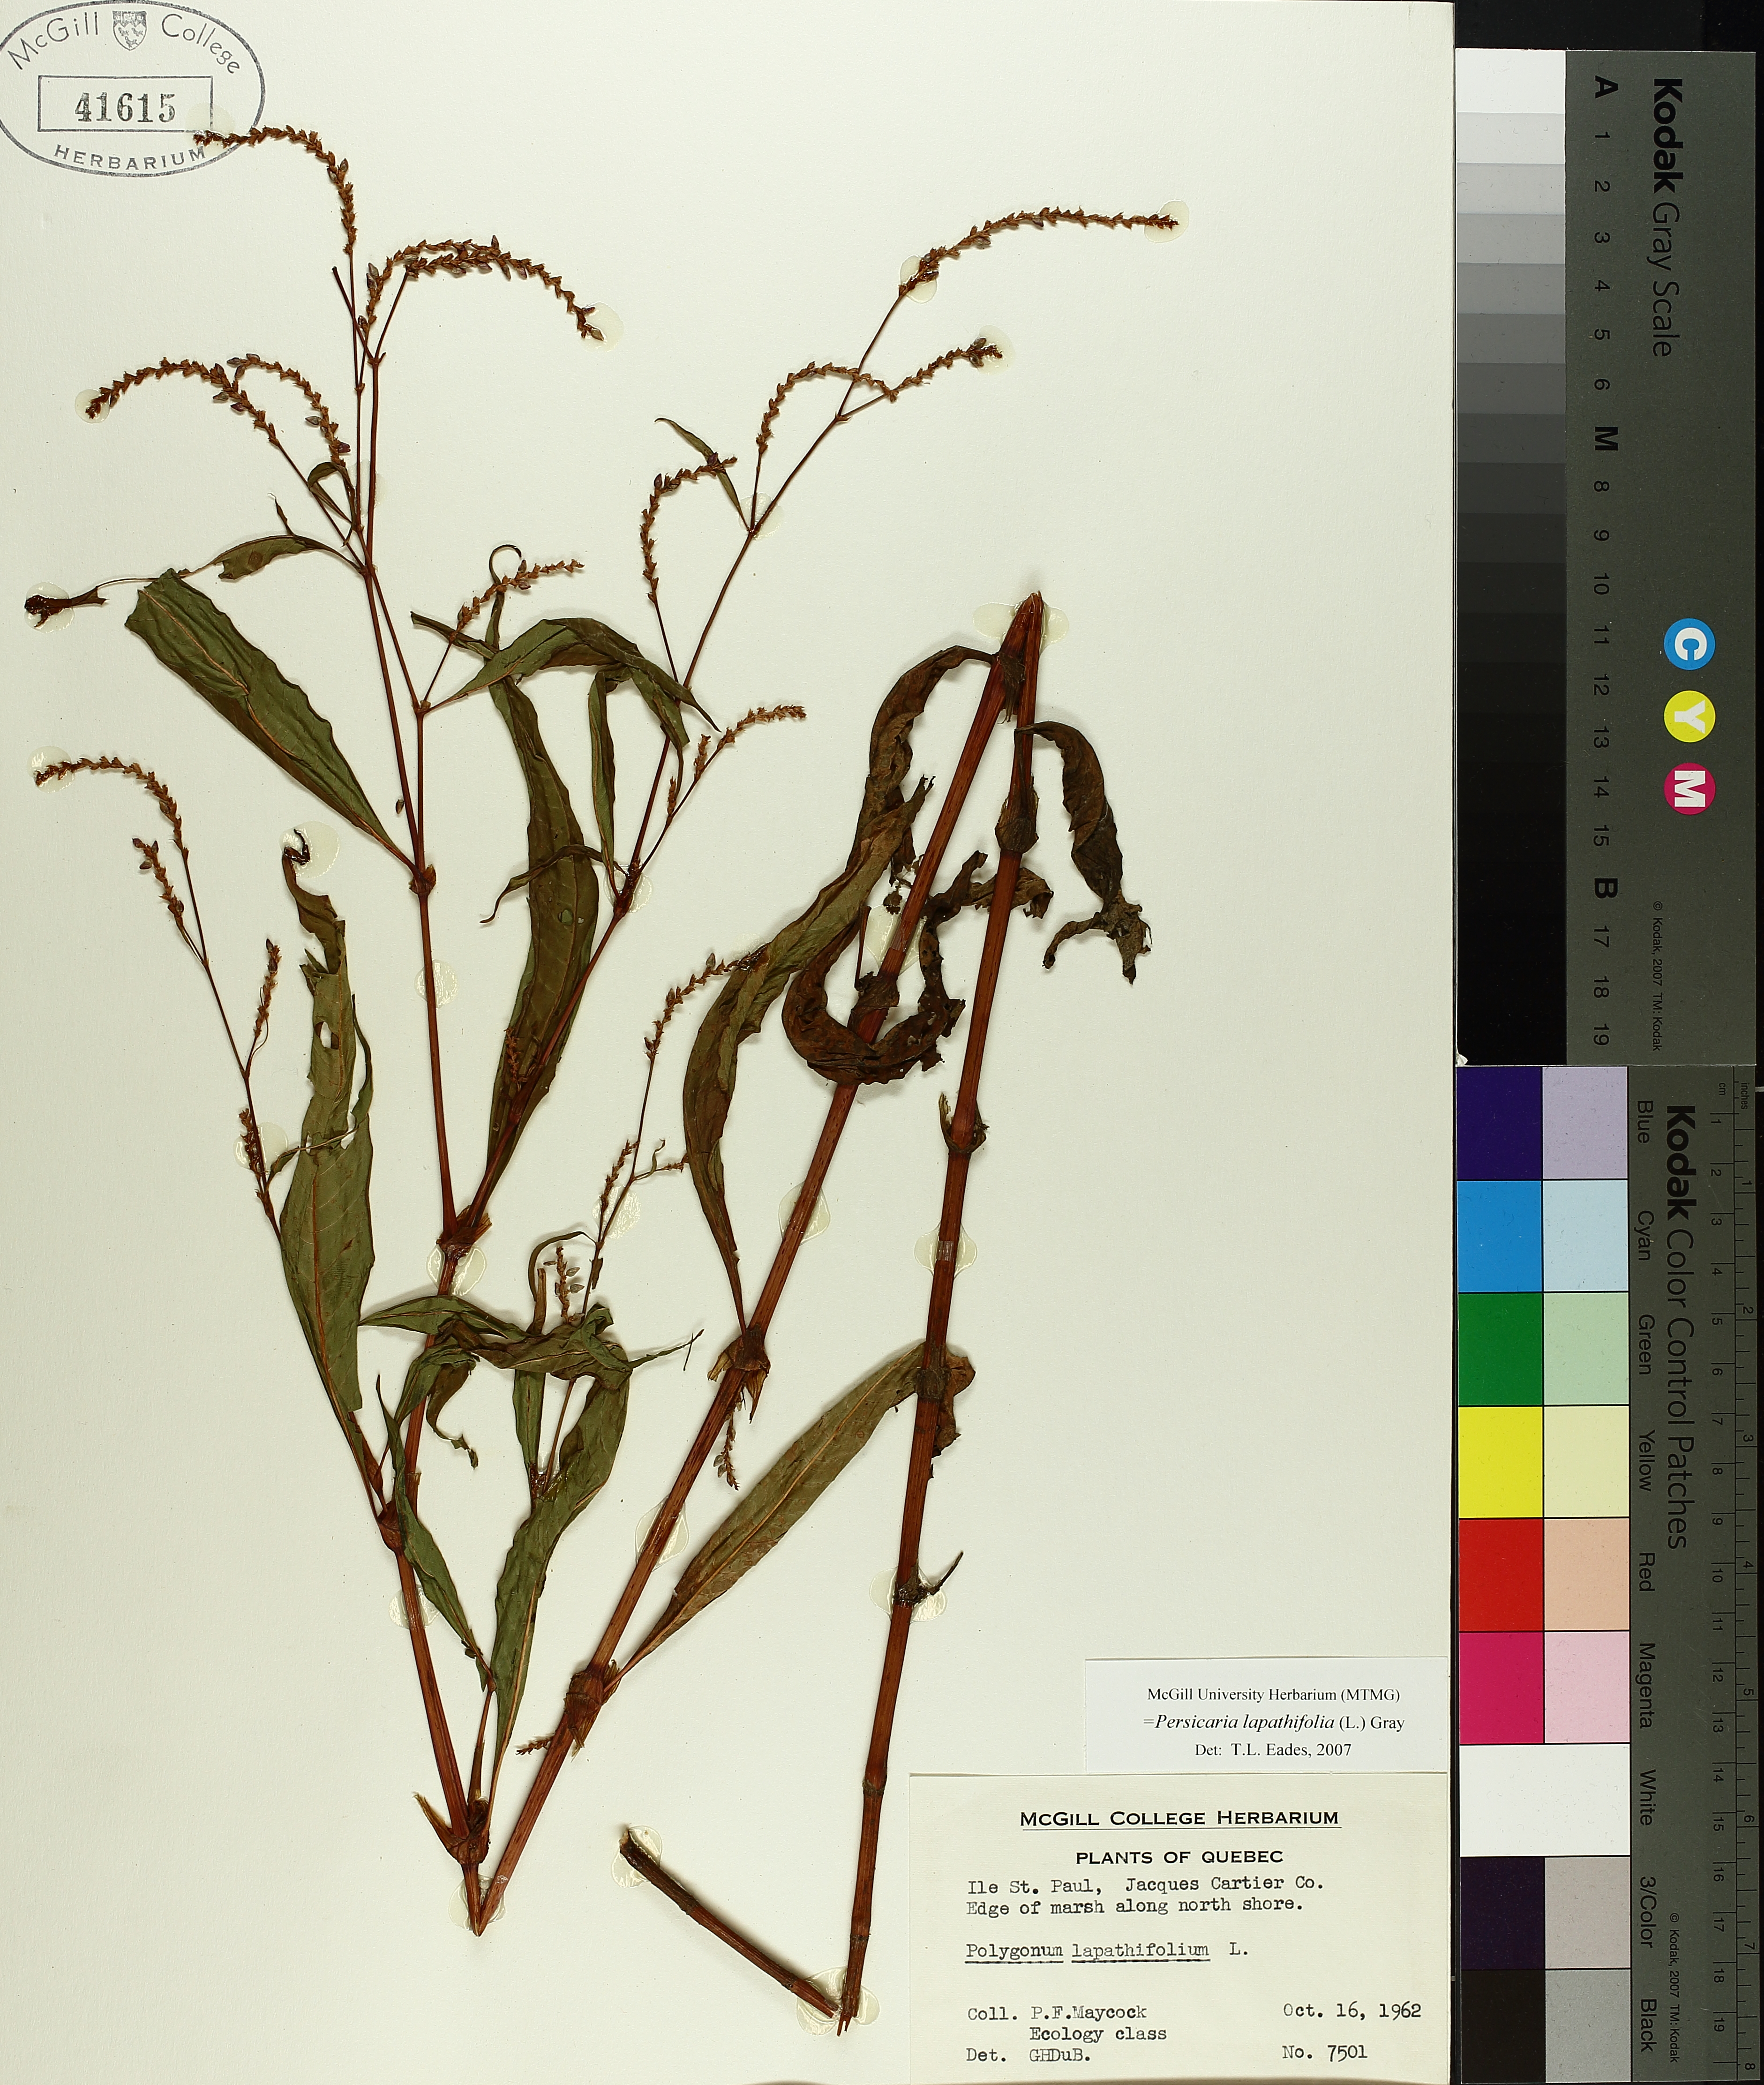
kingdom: Plantae
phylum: Tracheophyta
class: Magnoliopsida
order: Caryophyllales
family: Polygonaceae
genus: Persicaria
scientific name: Persicaria lapathifolia
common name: Curlytop knotweed
